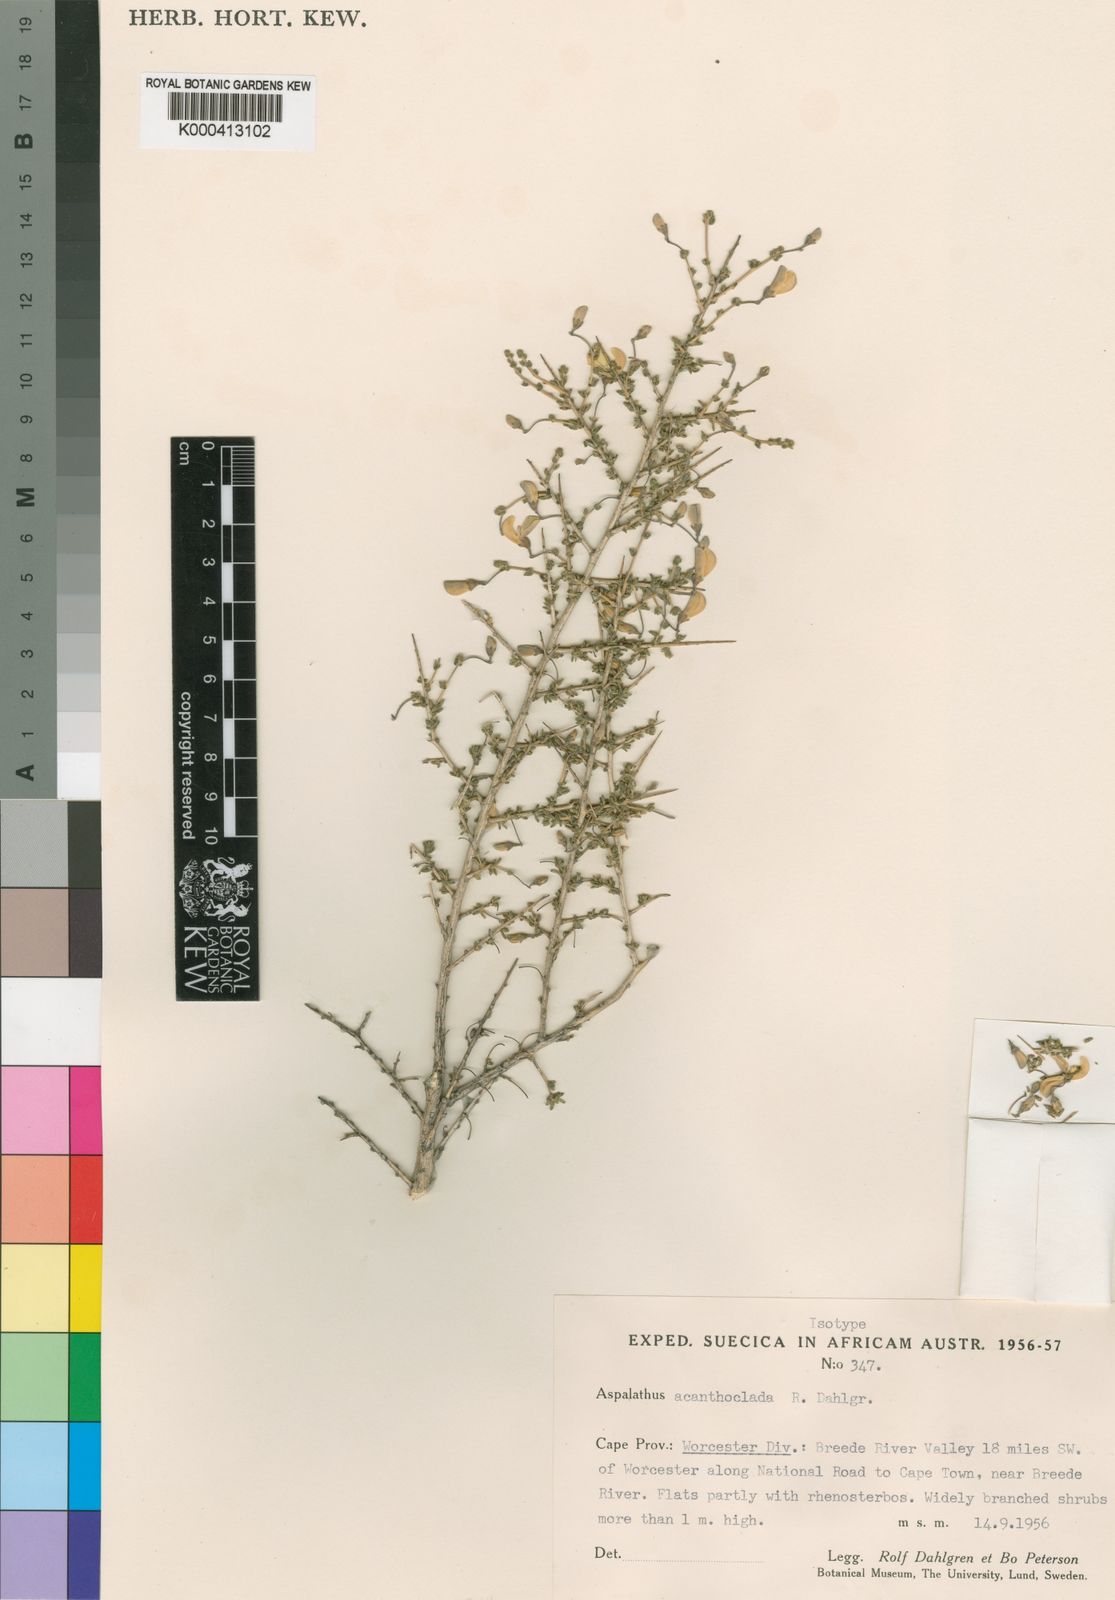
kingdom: Plantae
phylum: Tracheophyta
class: Magnoliopsida
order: Fabales
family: Fabaceae
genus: Aspalathus
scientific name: Aspalathus acanthoclada
